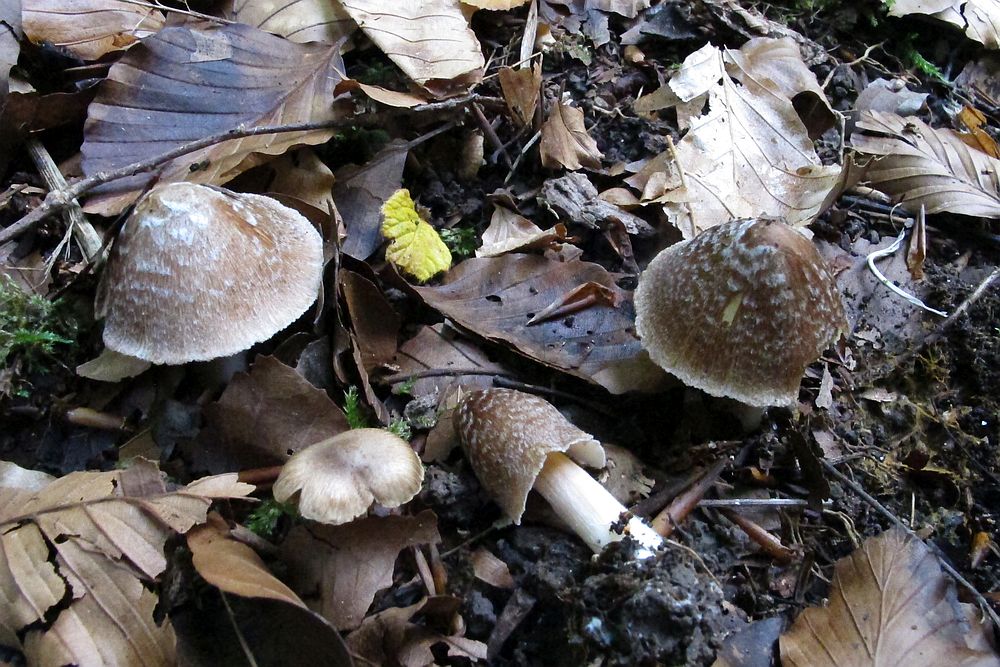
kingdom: Fungi
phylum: Basidiomycota
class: Agaricomycetes
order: Agaricales
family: Inocybaceae
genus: Inosperma
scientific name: Inosperma maculatum
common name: plettet trævlhat
